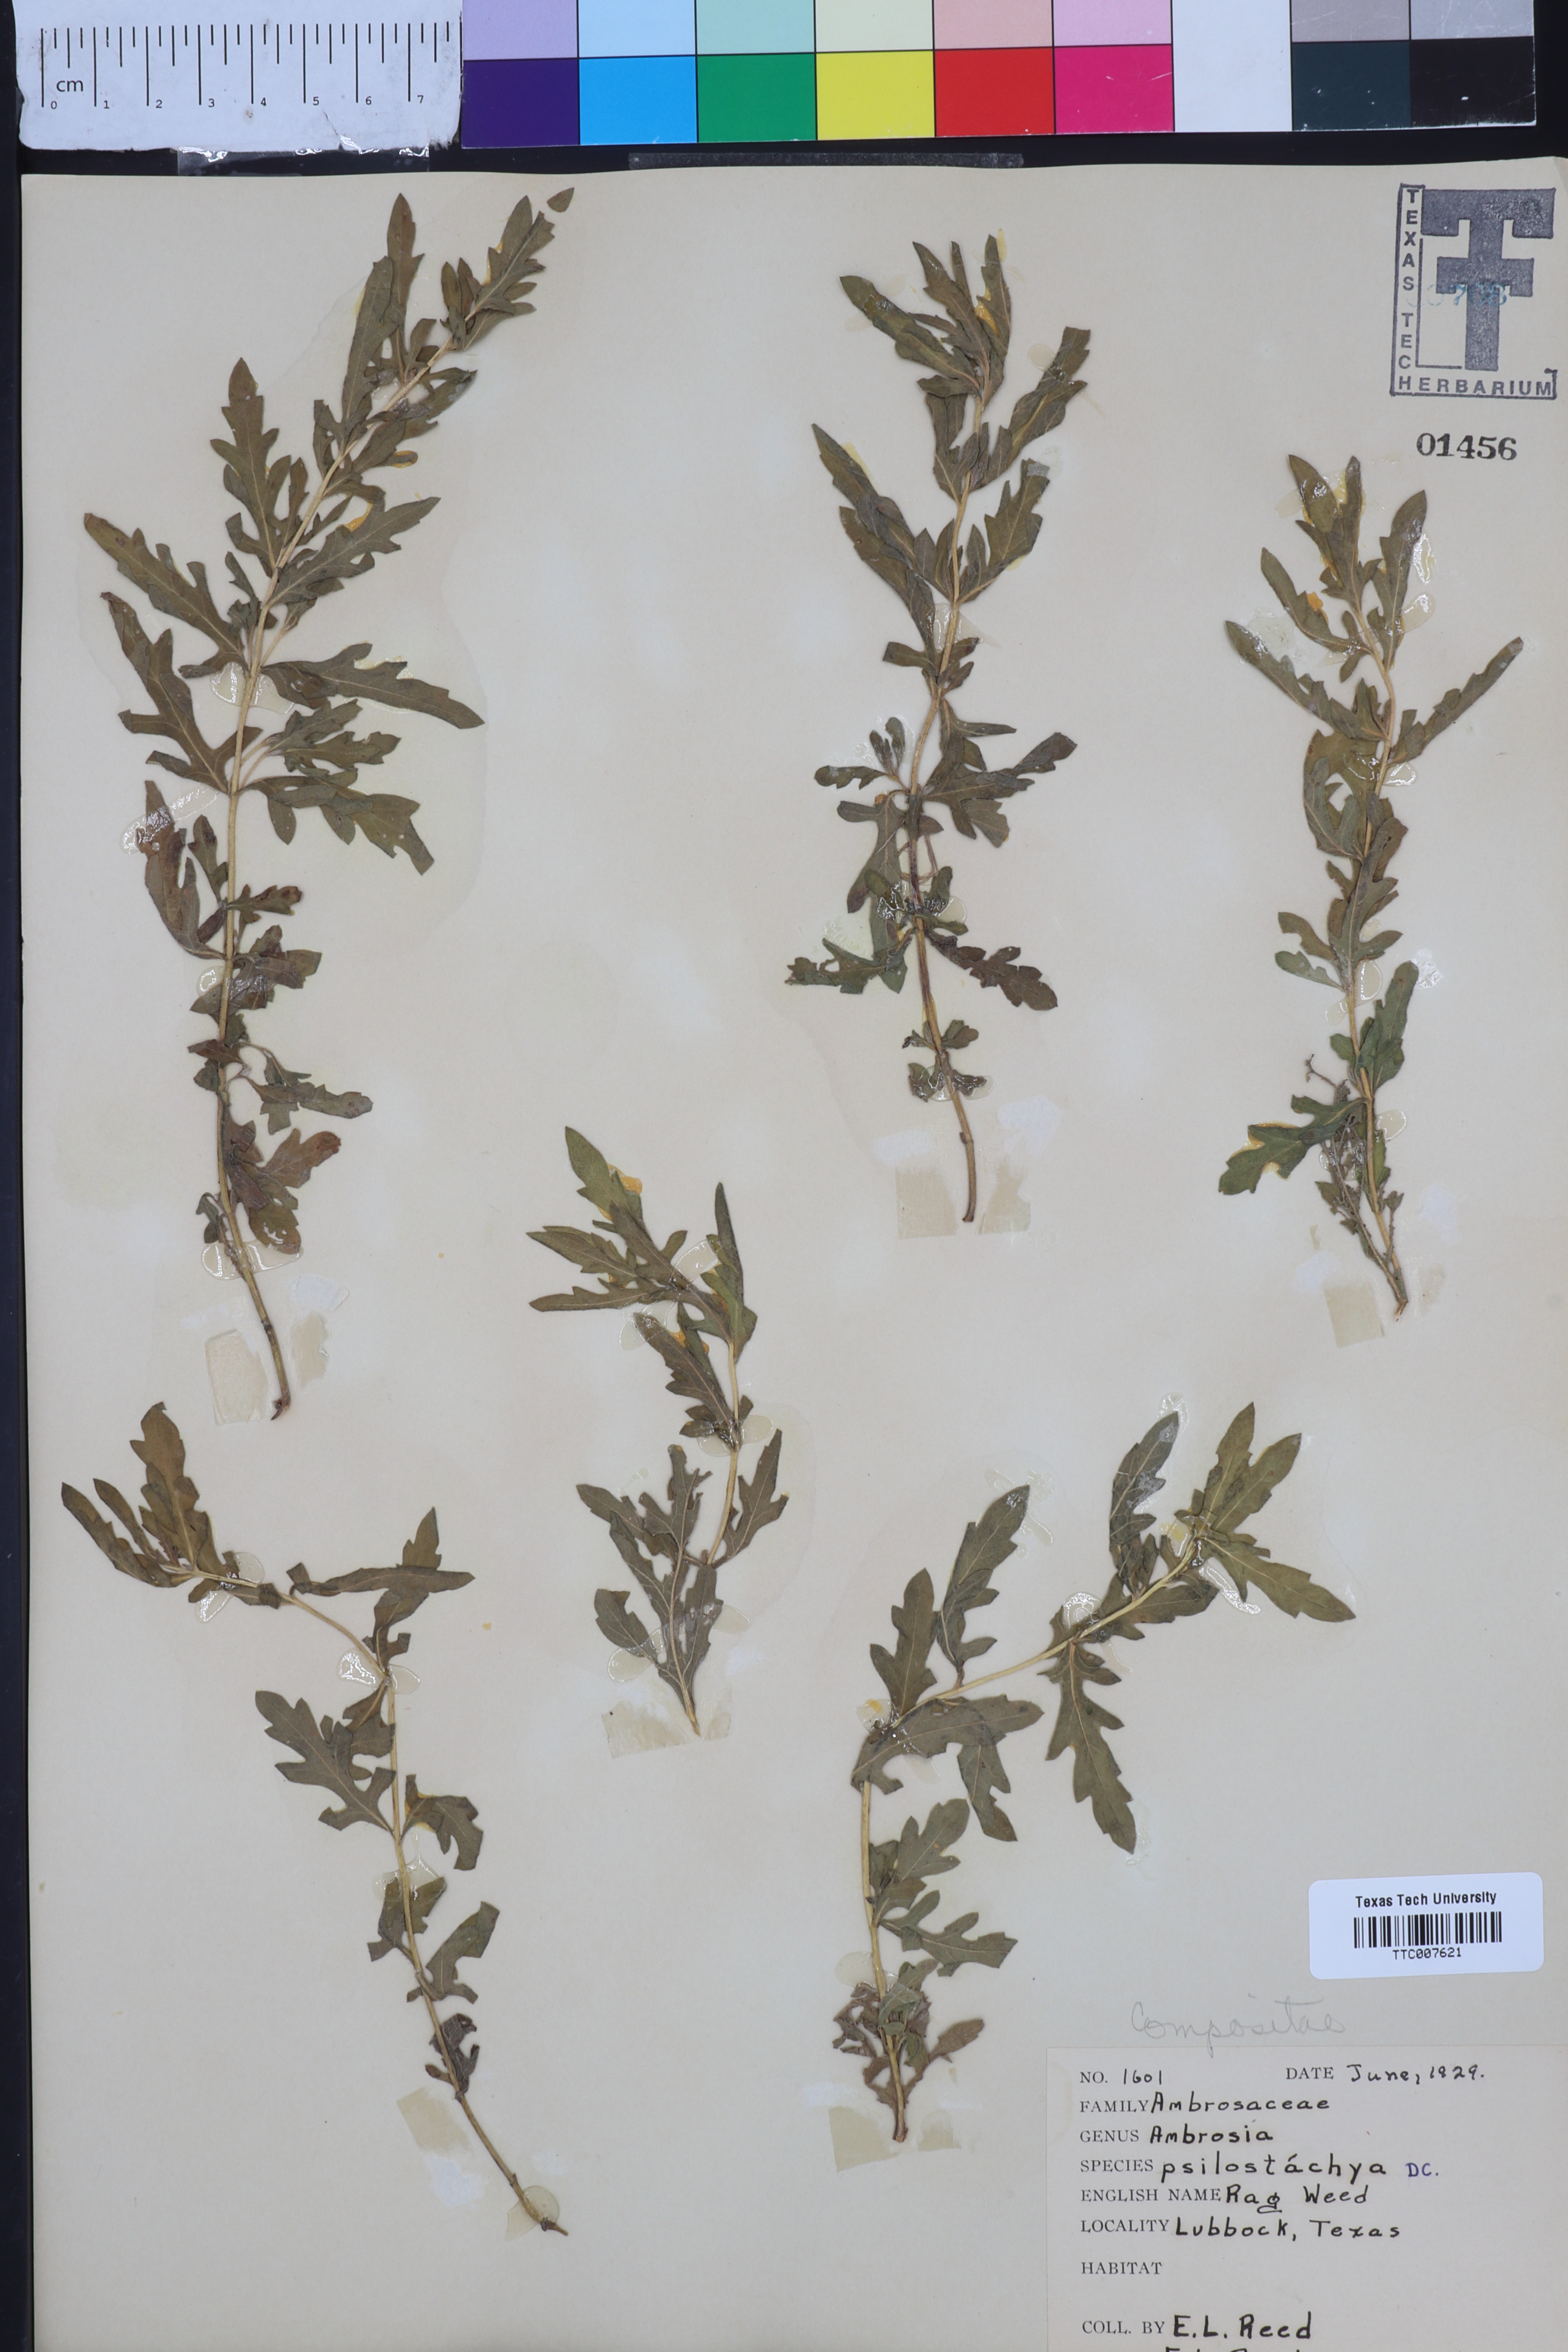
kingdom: Plantae
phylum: Tracheophyta
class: Magnoliopsida
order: Asterales
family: Asteraceae
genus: Ambrosia
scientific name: Ambrosia psilostachya
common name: Perennial ragweed
